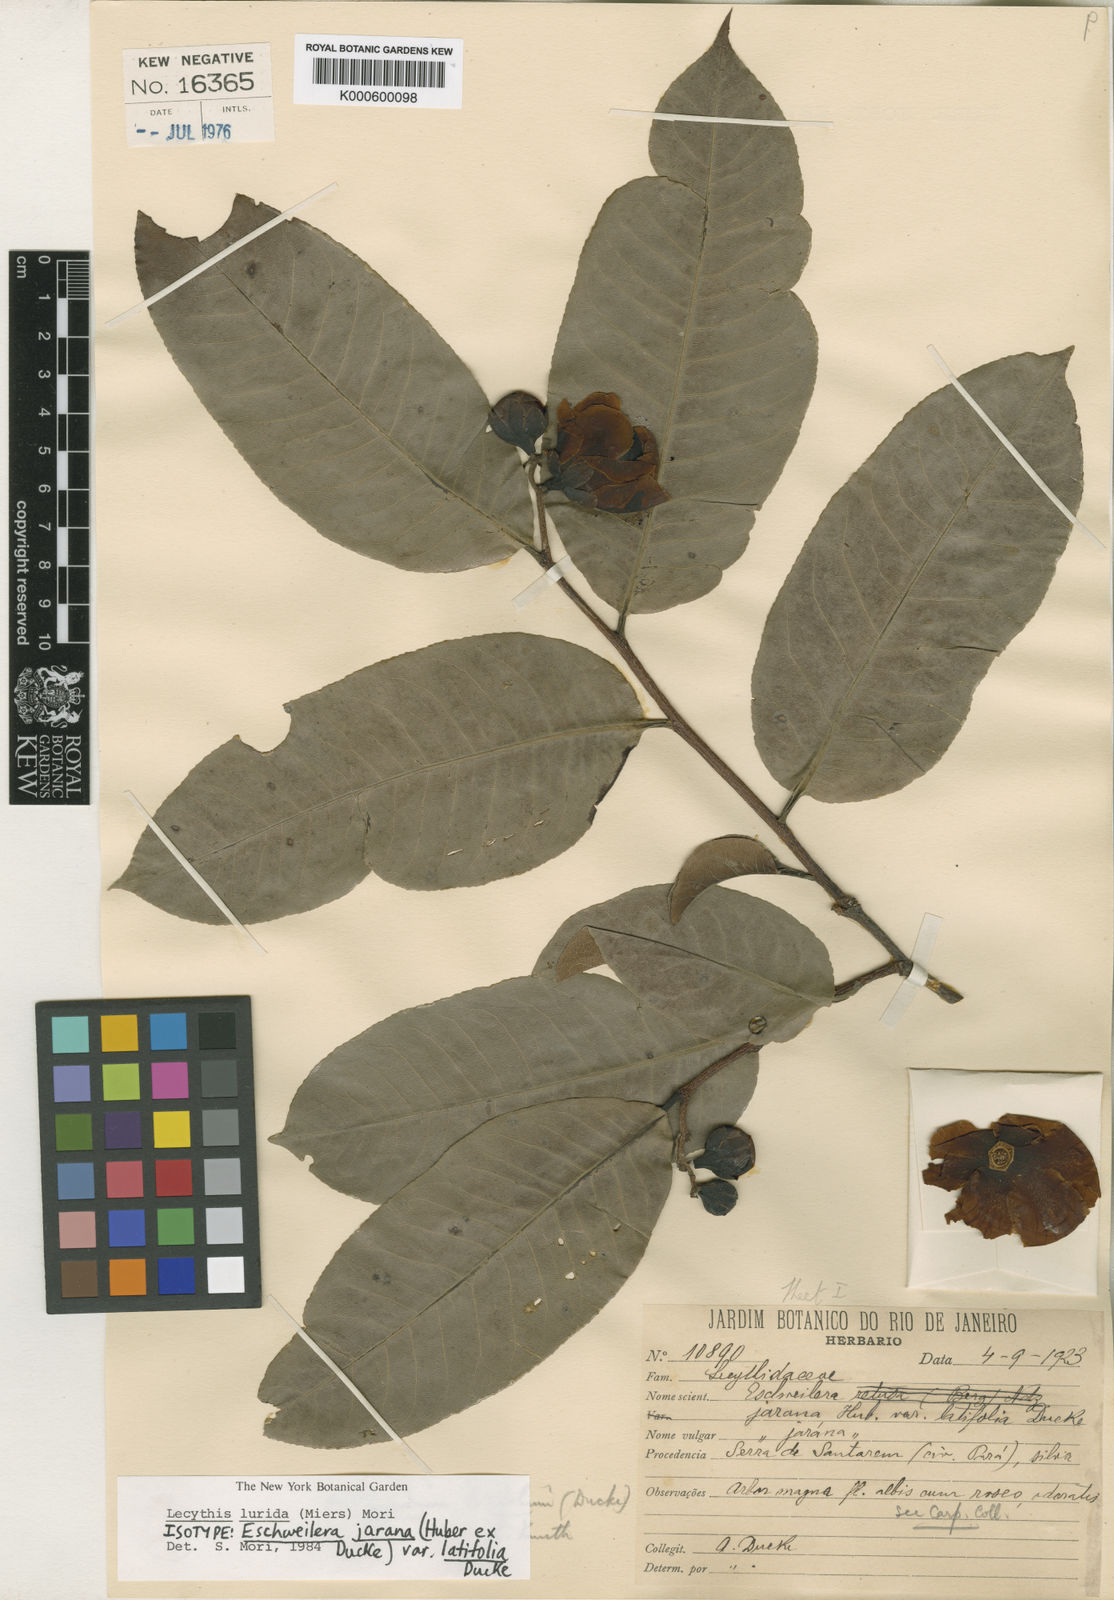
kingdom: Plantae
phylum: Tracheophyta
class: Magnoliopsida
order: Ericales
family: Lecythidaceae
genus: Lecythis
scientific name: Lecythis lurida
